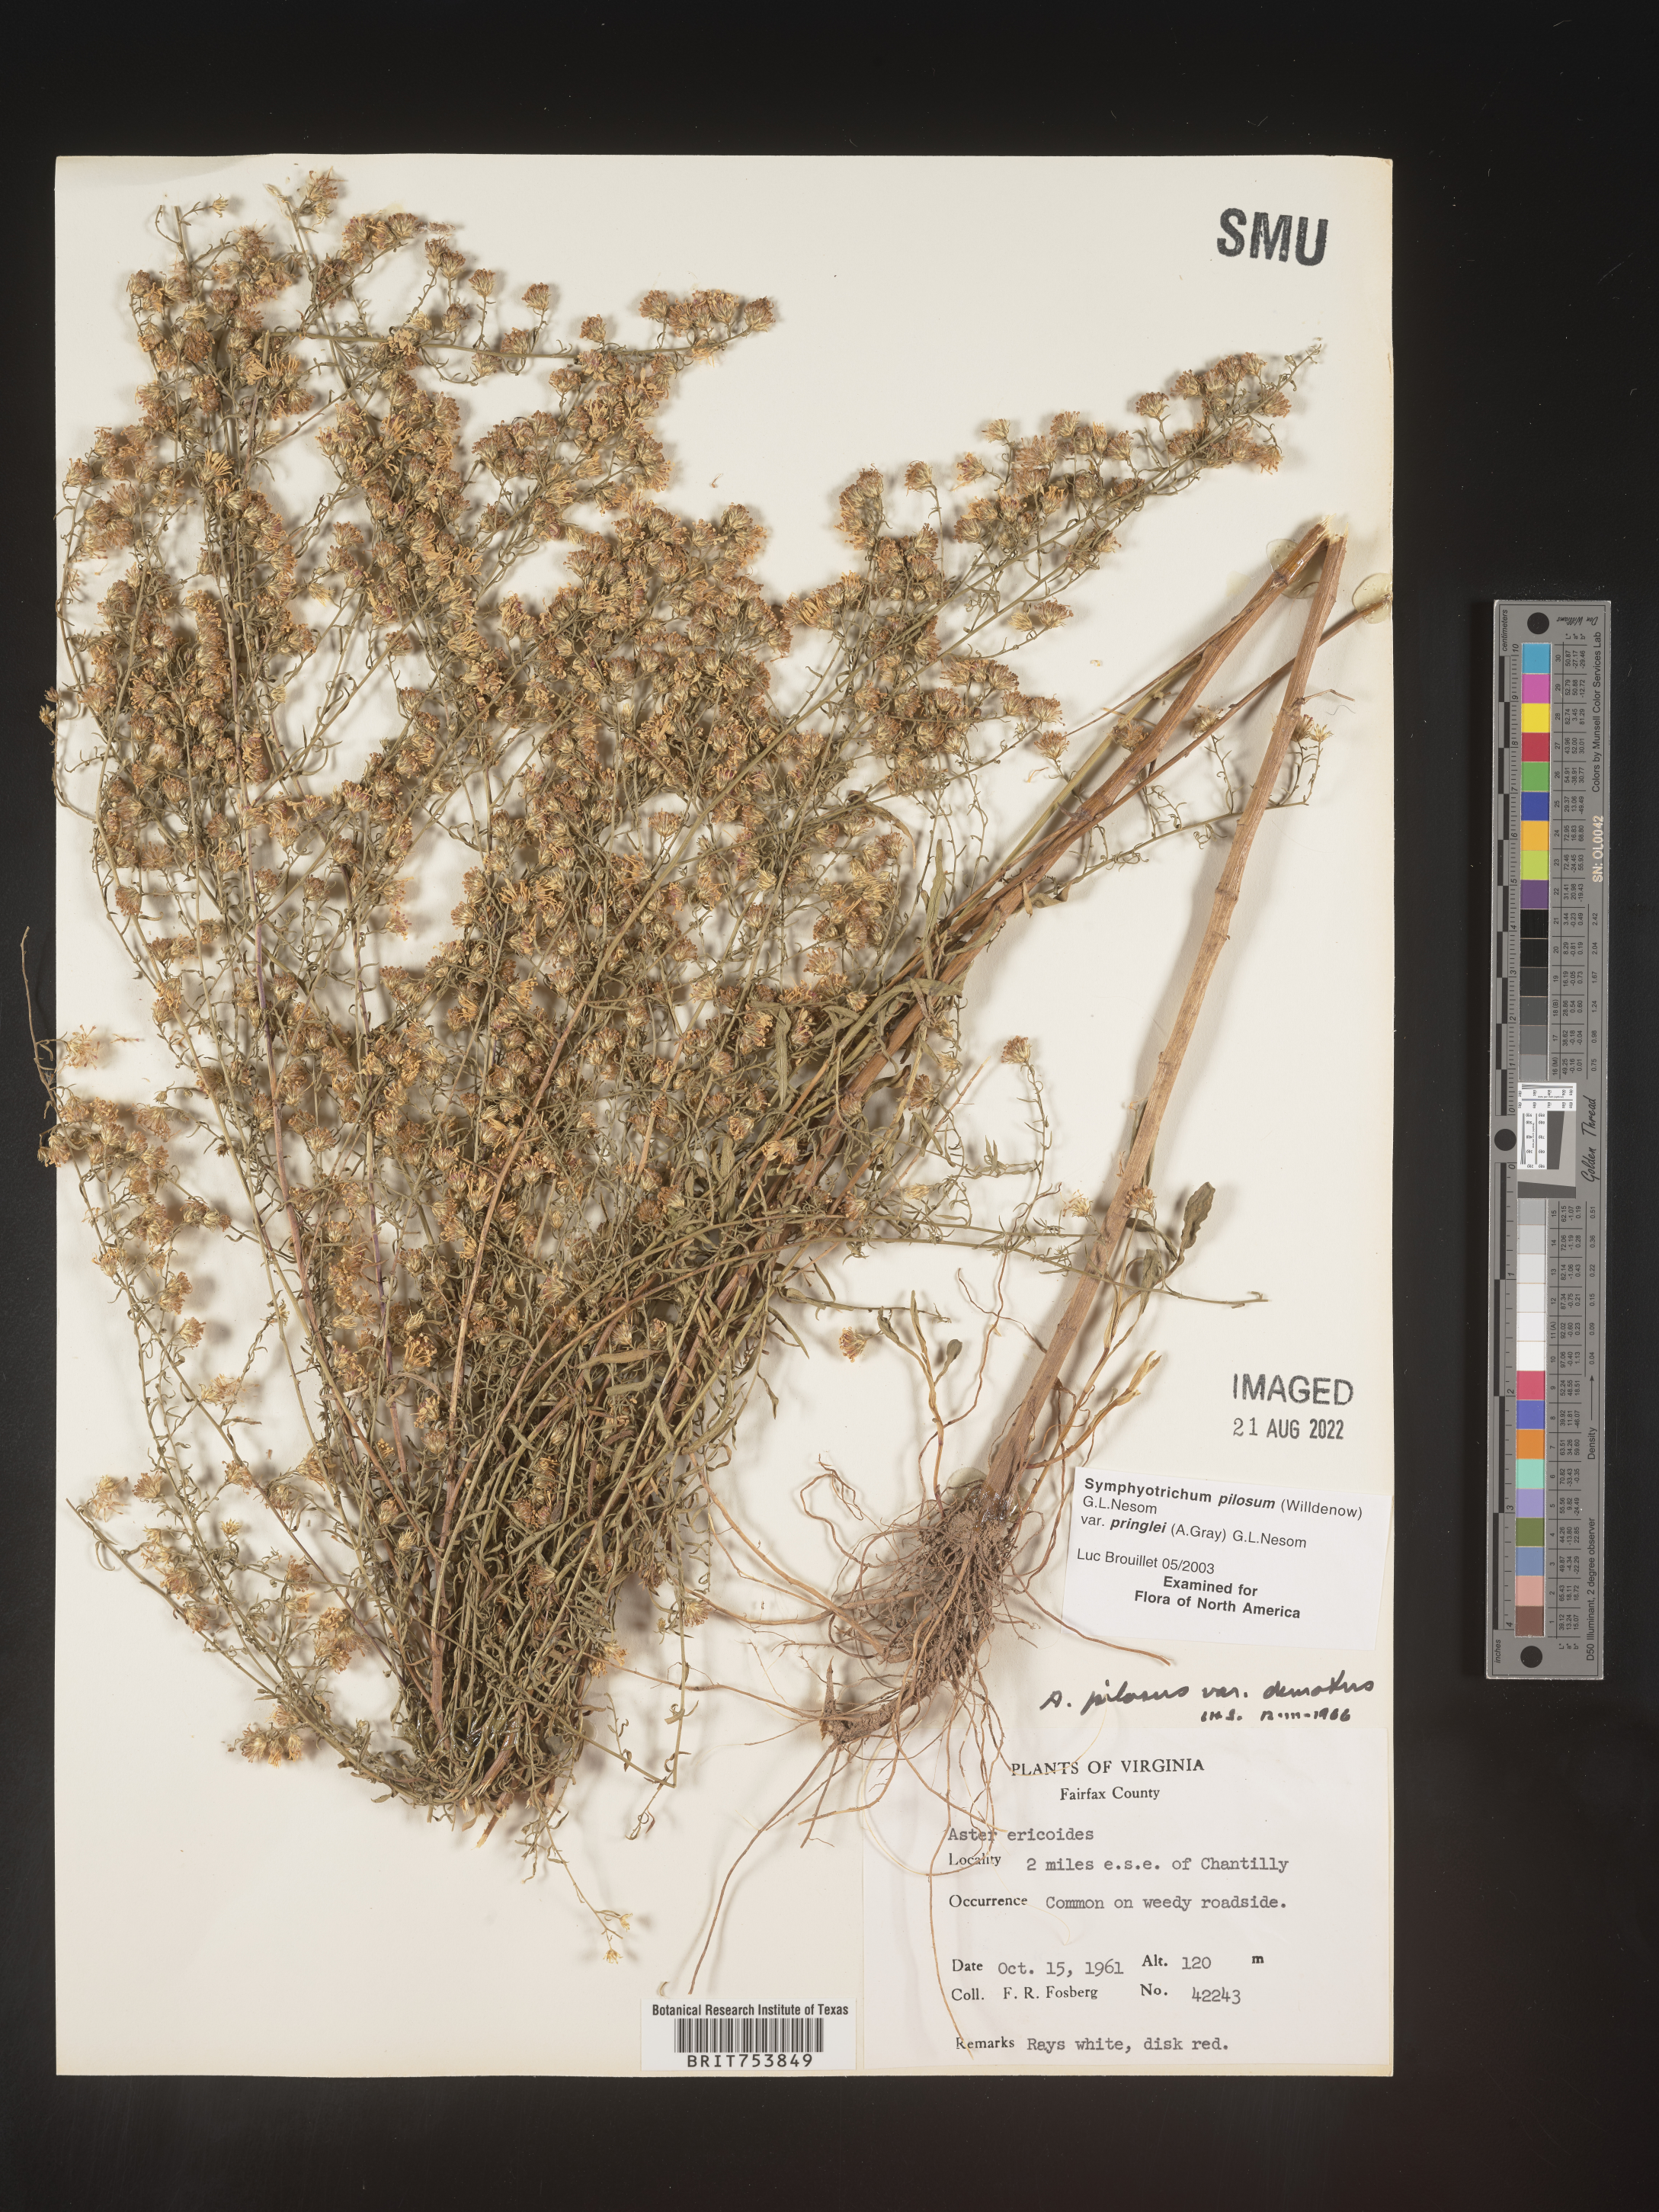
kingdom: Plantae
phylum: Tracheophyta
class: Magnoliopsida
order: Asterales
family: Asteraceae
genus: Symphyotrichum
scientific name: Symphyotrichum pilosum
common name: Awl aster
